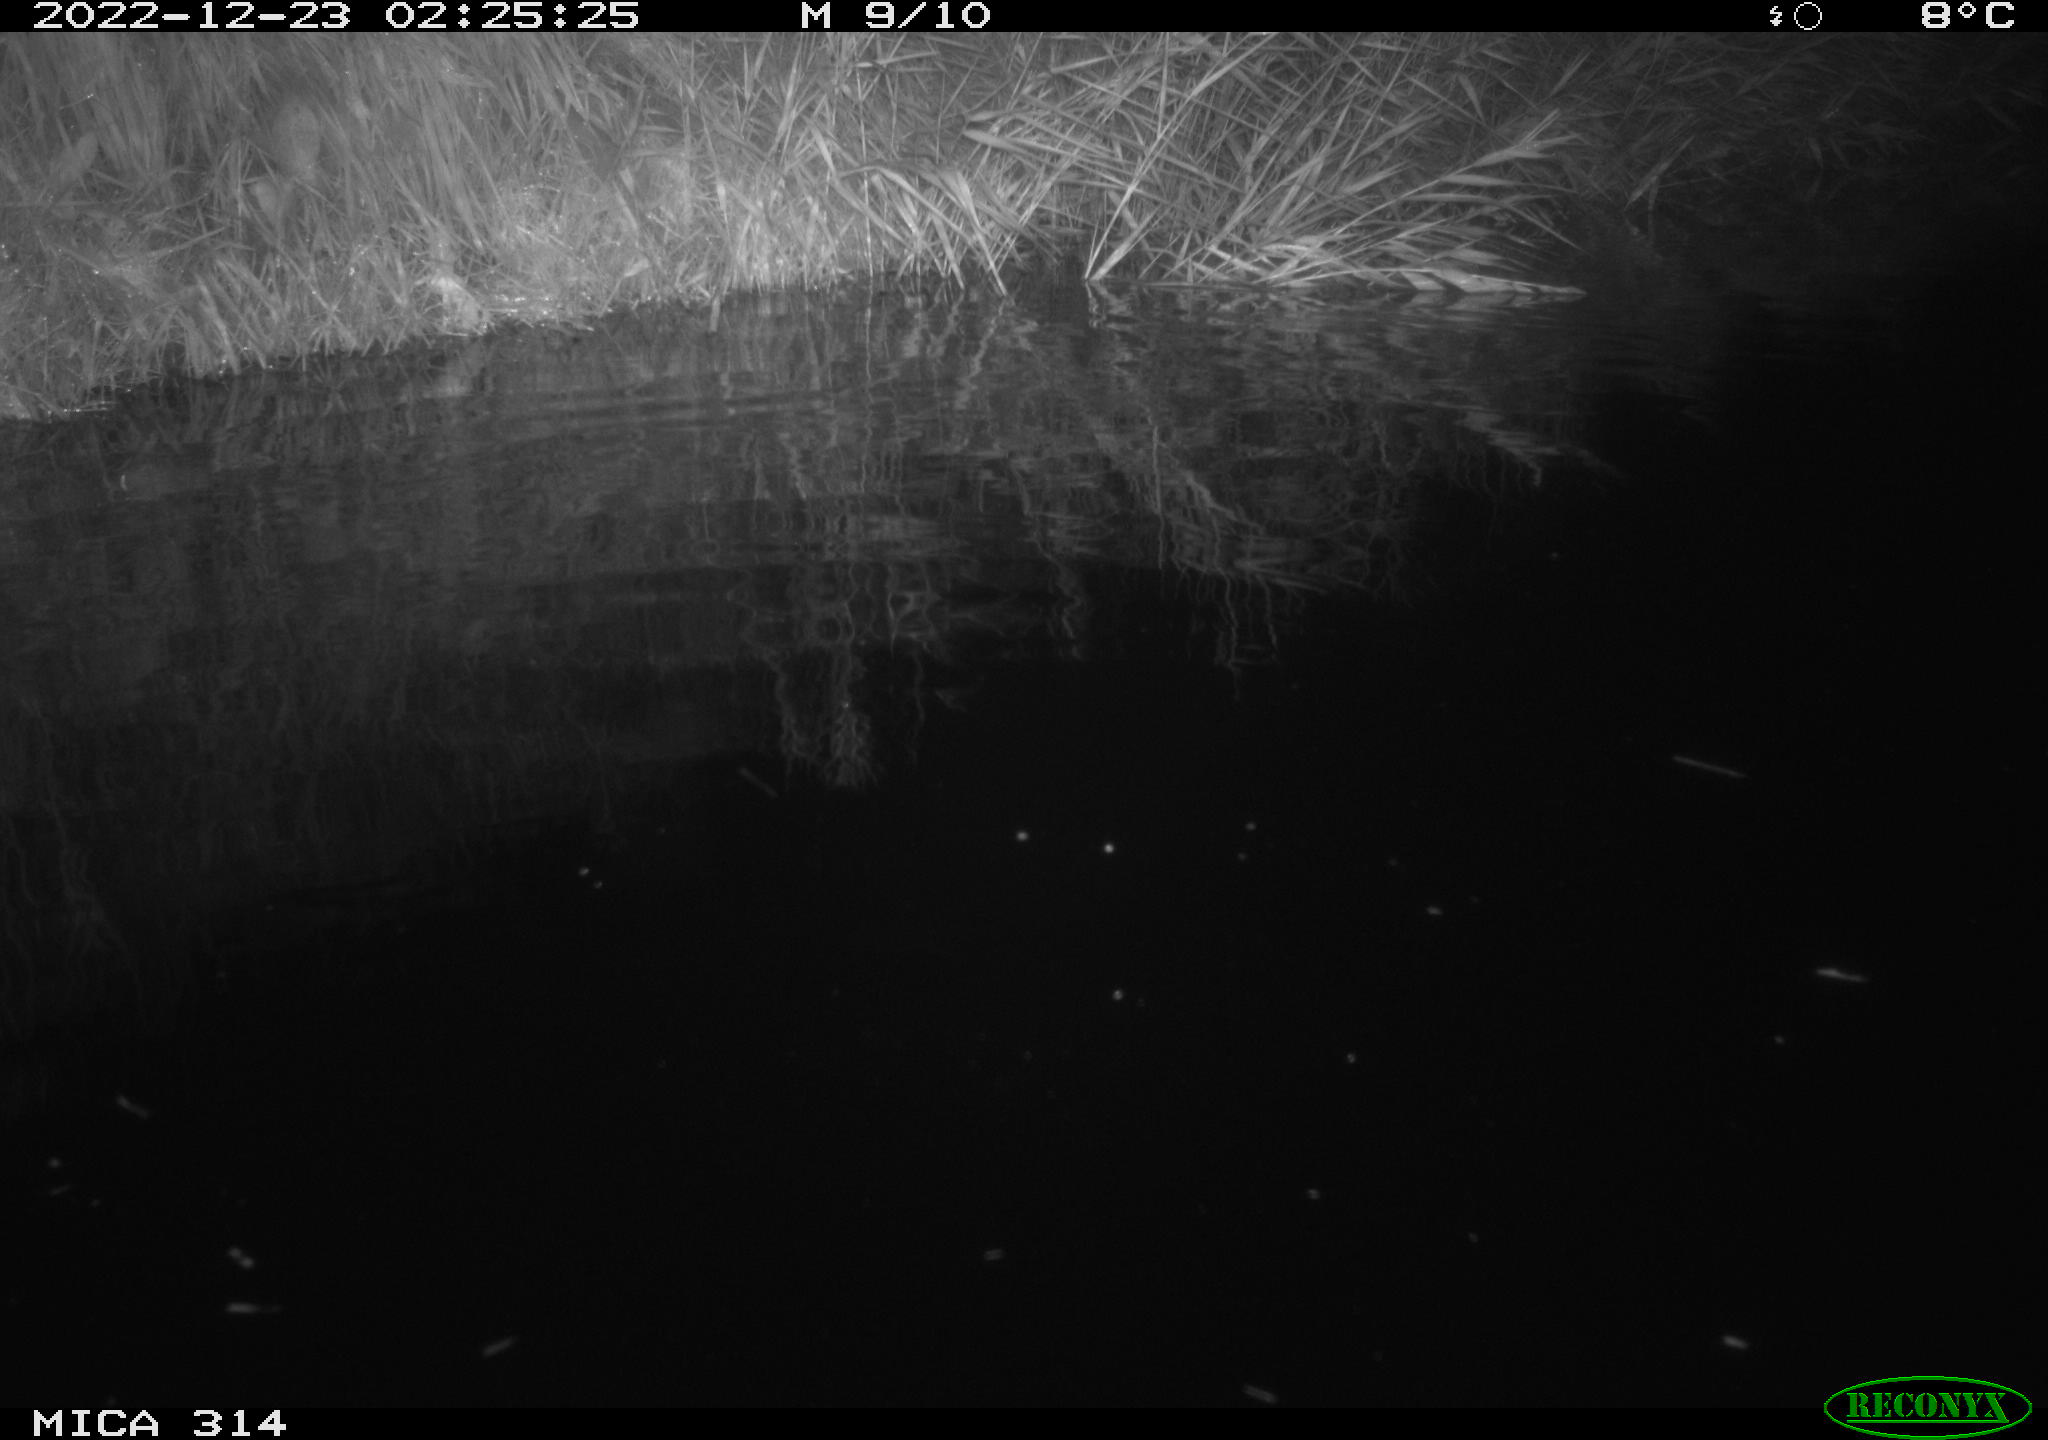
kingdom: Animalia
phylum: Chordata
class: Mammalia
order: Rodentia
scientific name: Rodentia
